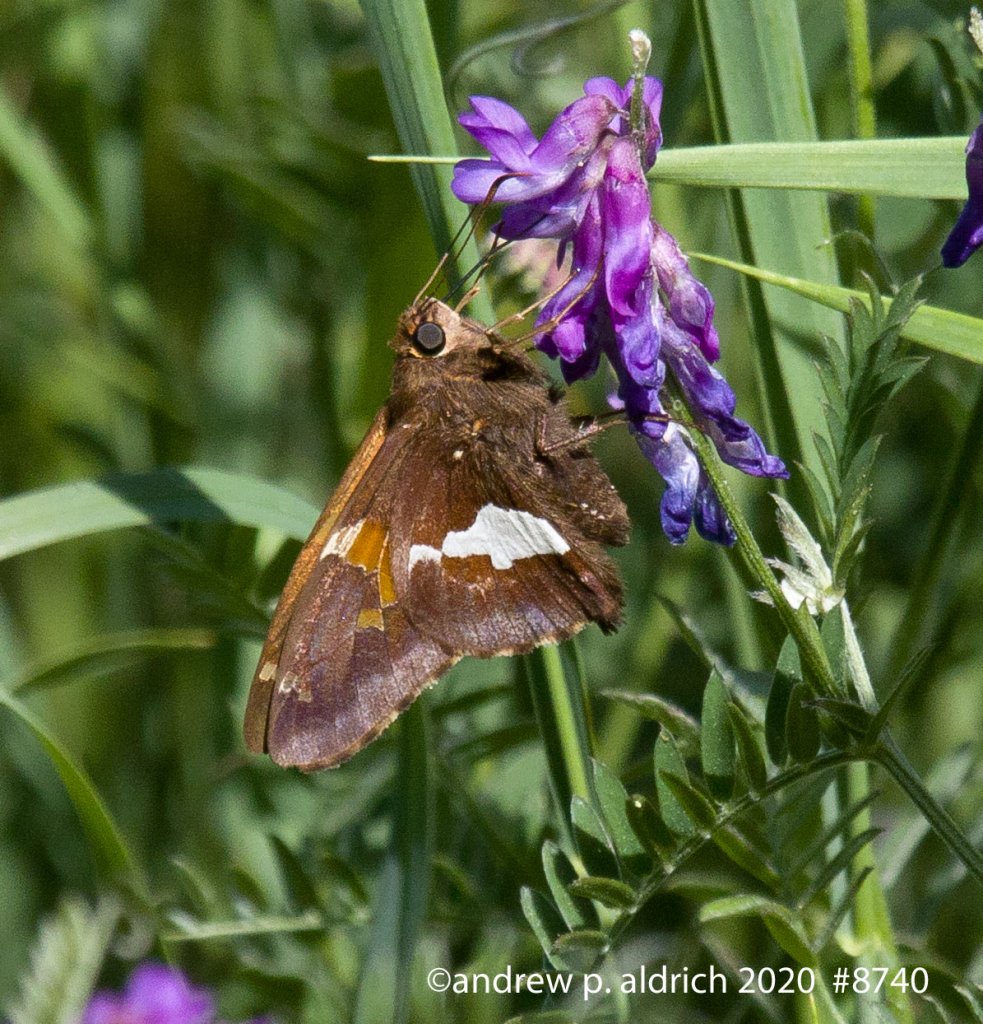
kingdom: Animalia
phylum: Arthropoda
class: Insecta
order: Lepidoptera
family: Hesperiidae
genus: Epargyreus
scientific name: Epargyreus clarus
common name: Silver-spotted Skipper
